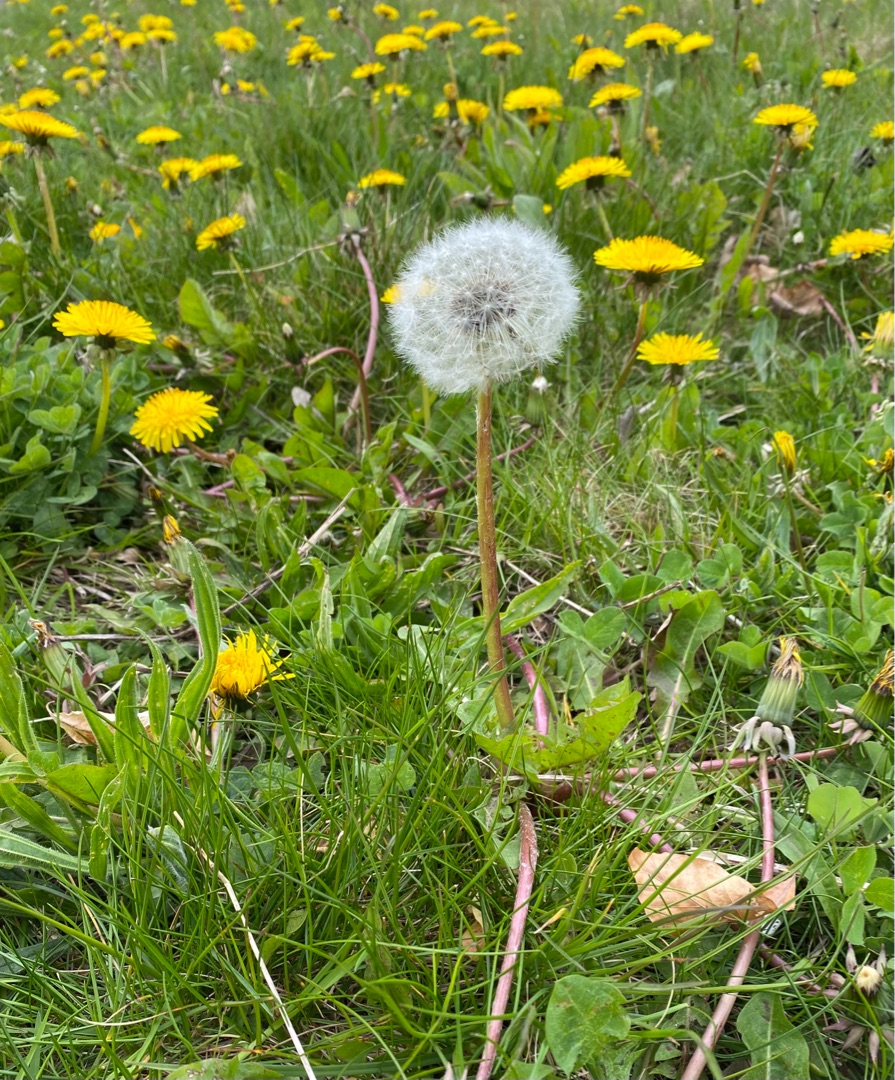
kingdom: Plantae
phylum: Tracheophyta
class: Magnoliopsida
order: Asterales
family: Asteraceae
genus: Taraxacum
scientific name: Taraxacum
